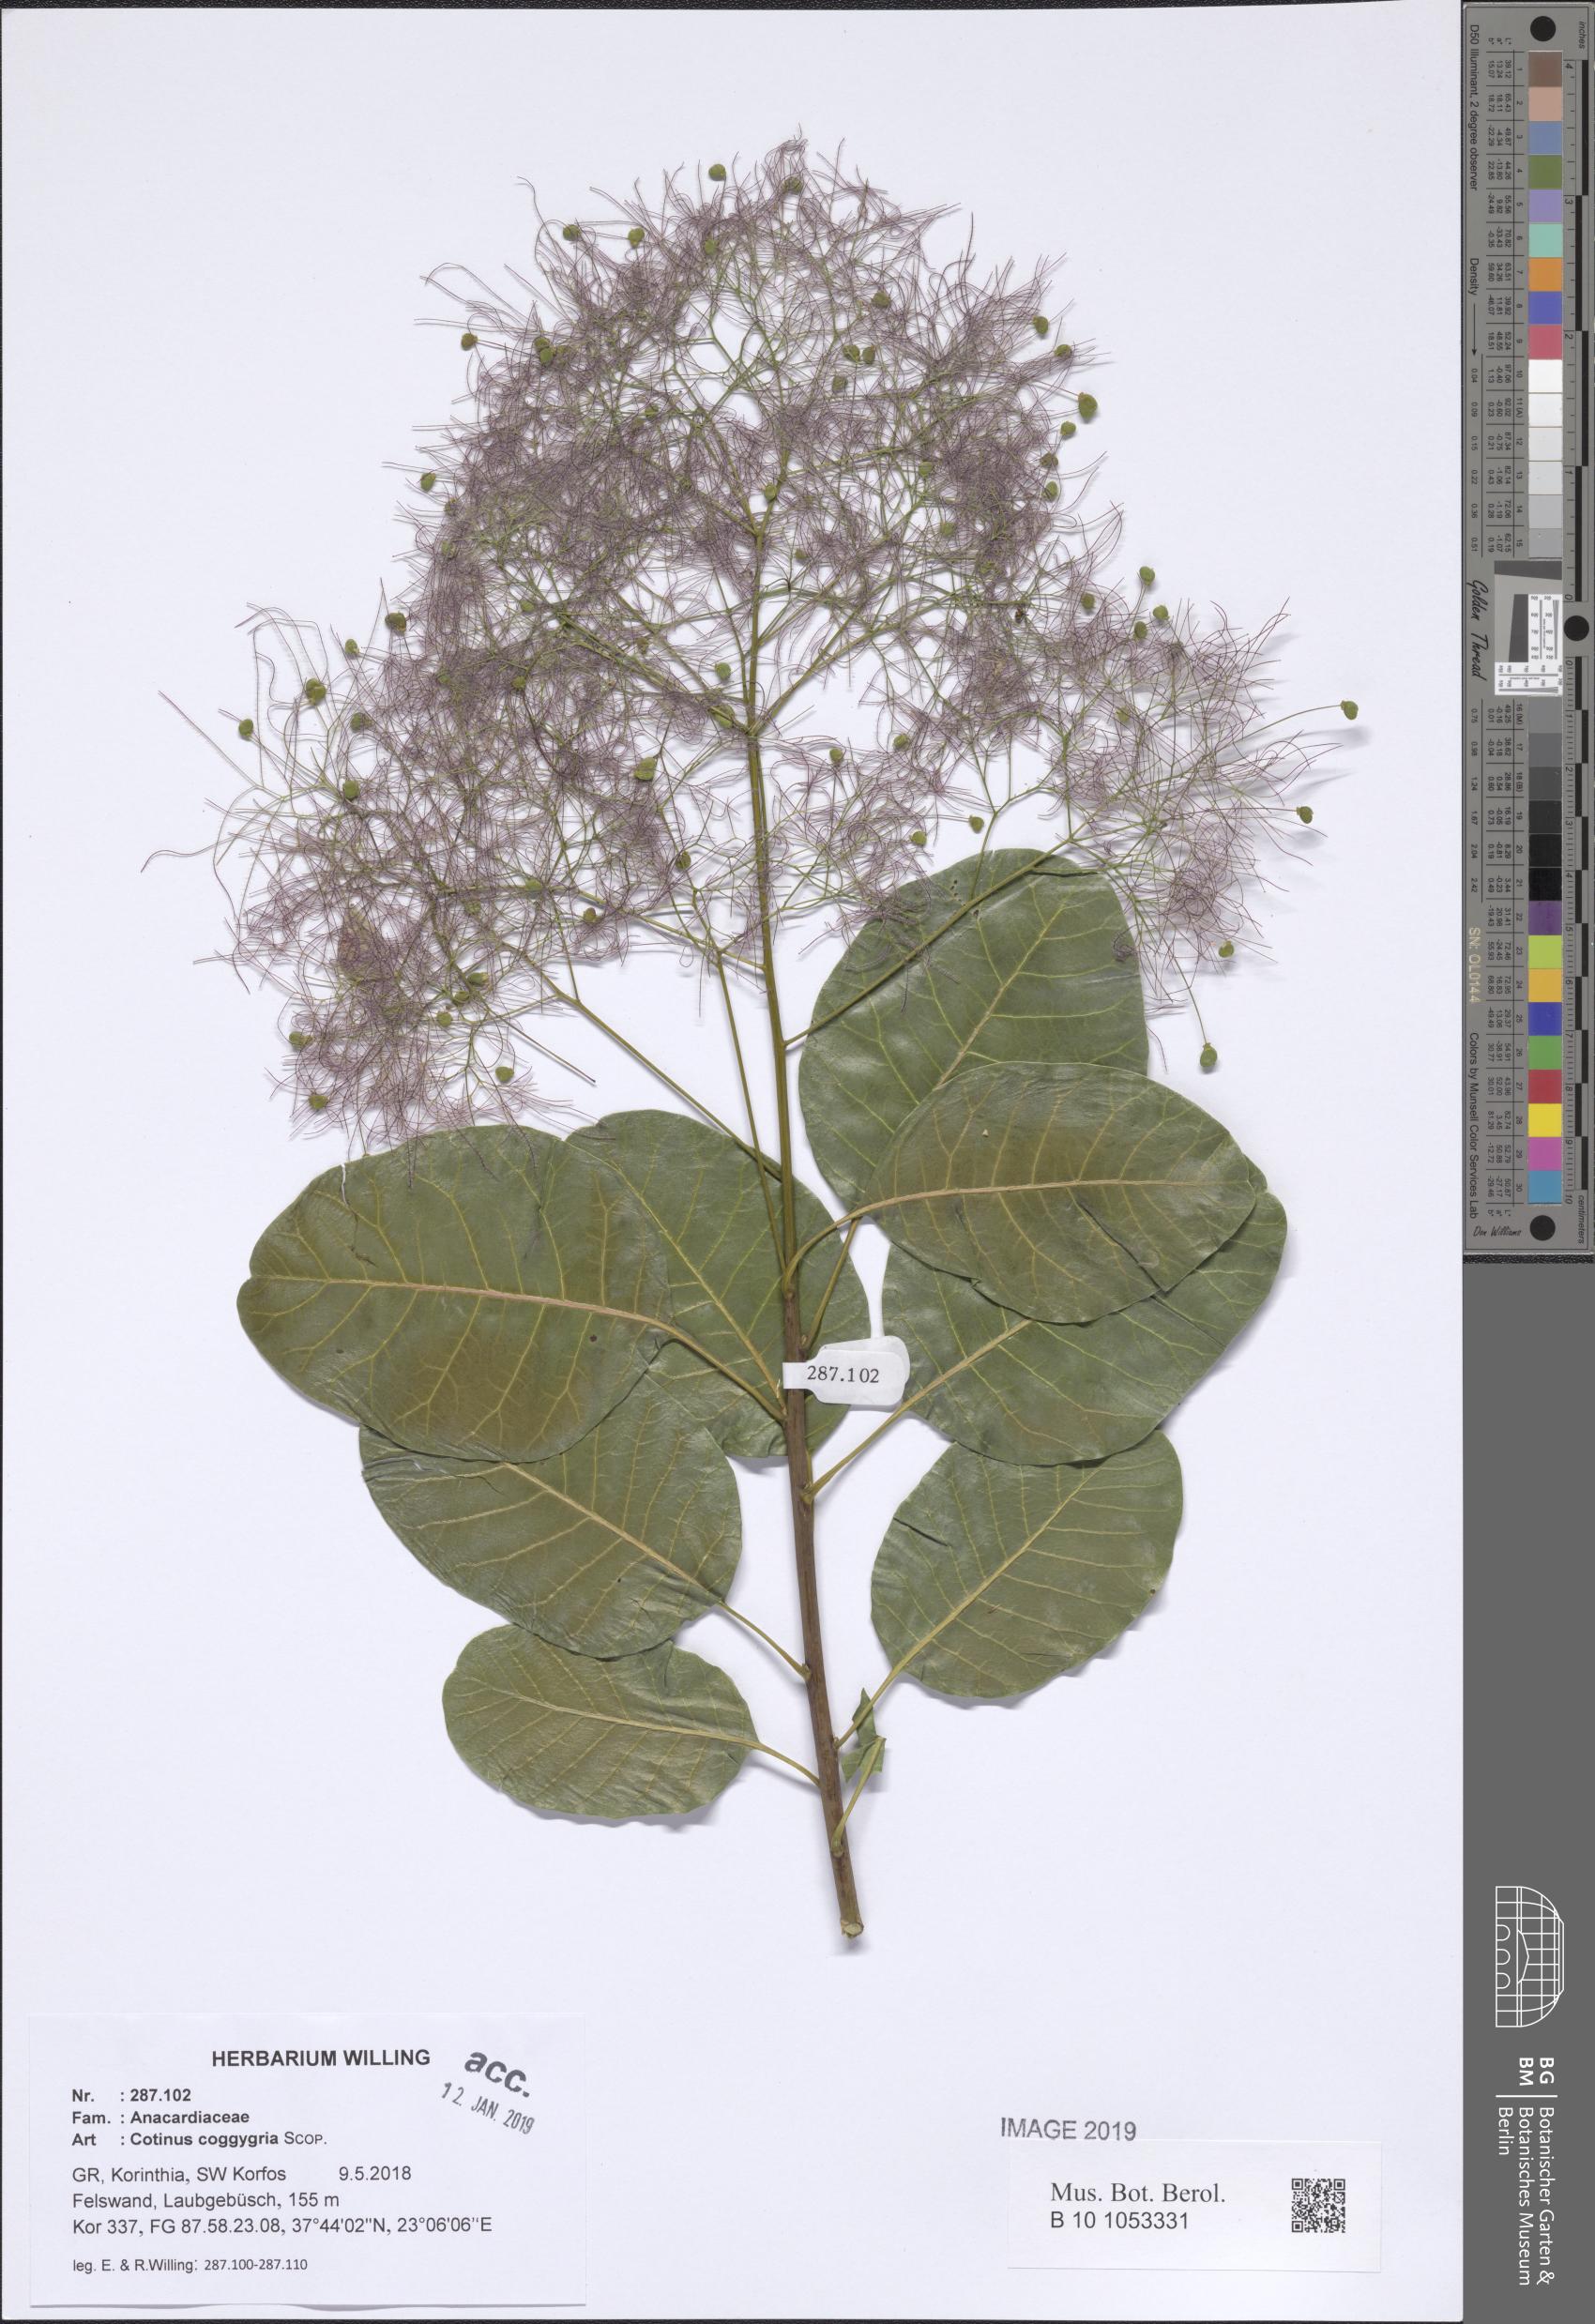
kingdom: Plantae
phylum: Tracheophyta
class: Magnoliopsida
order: Sapindales
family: Anacardiaceae
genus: Cotinus
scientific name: Cotinus coggygria
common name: Smoke-tree
